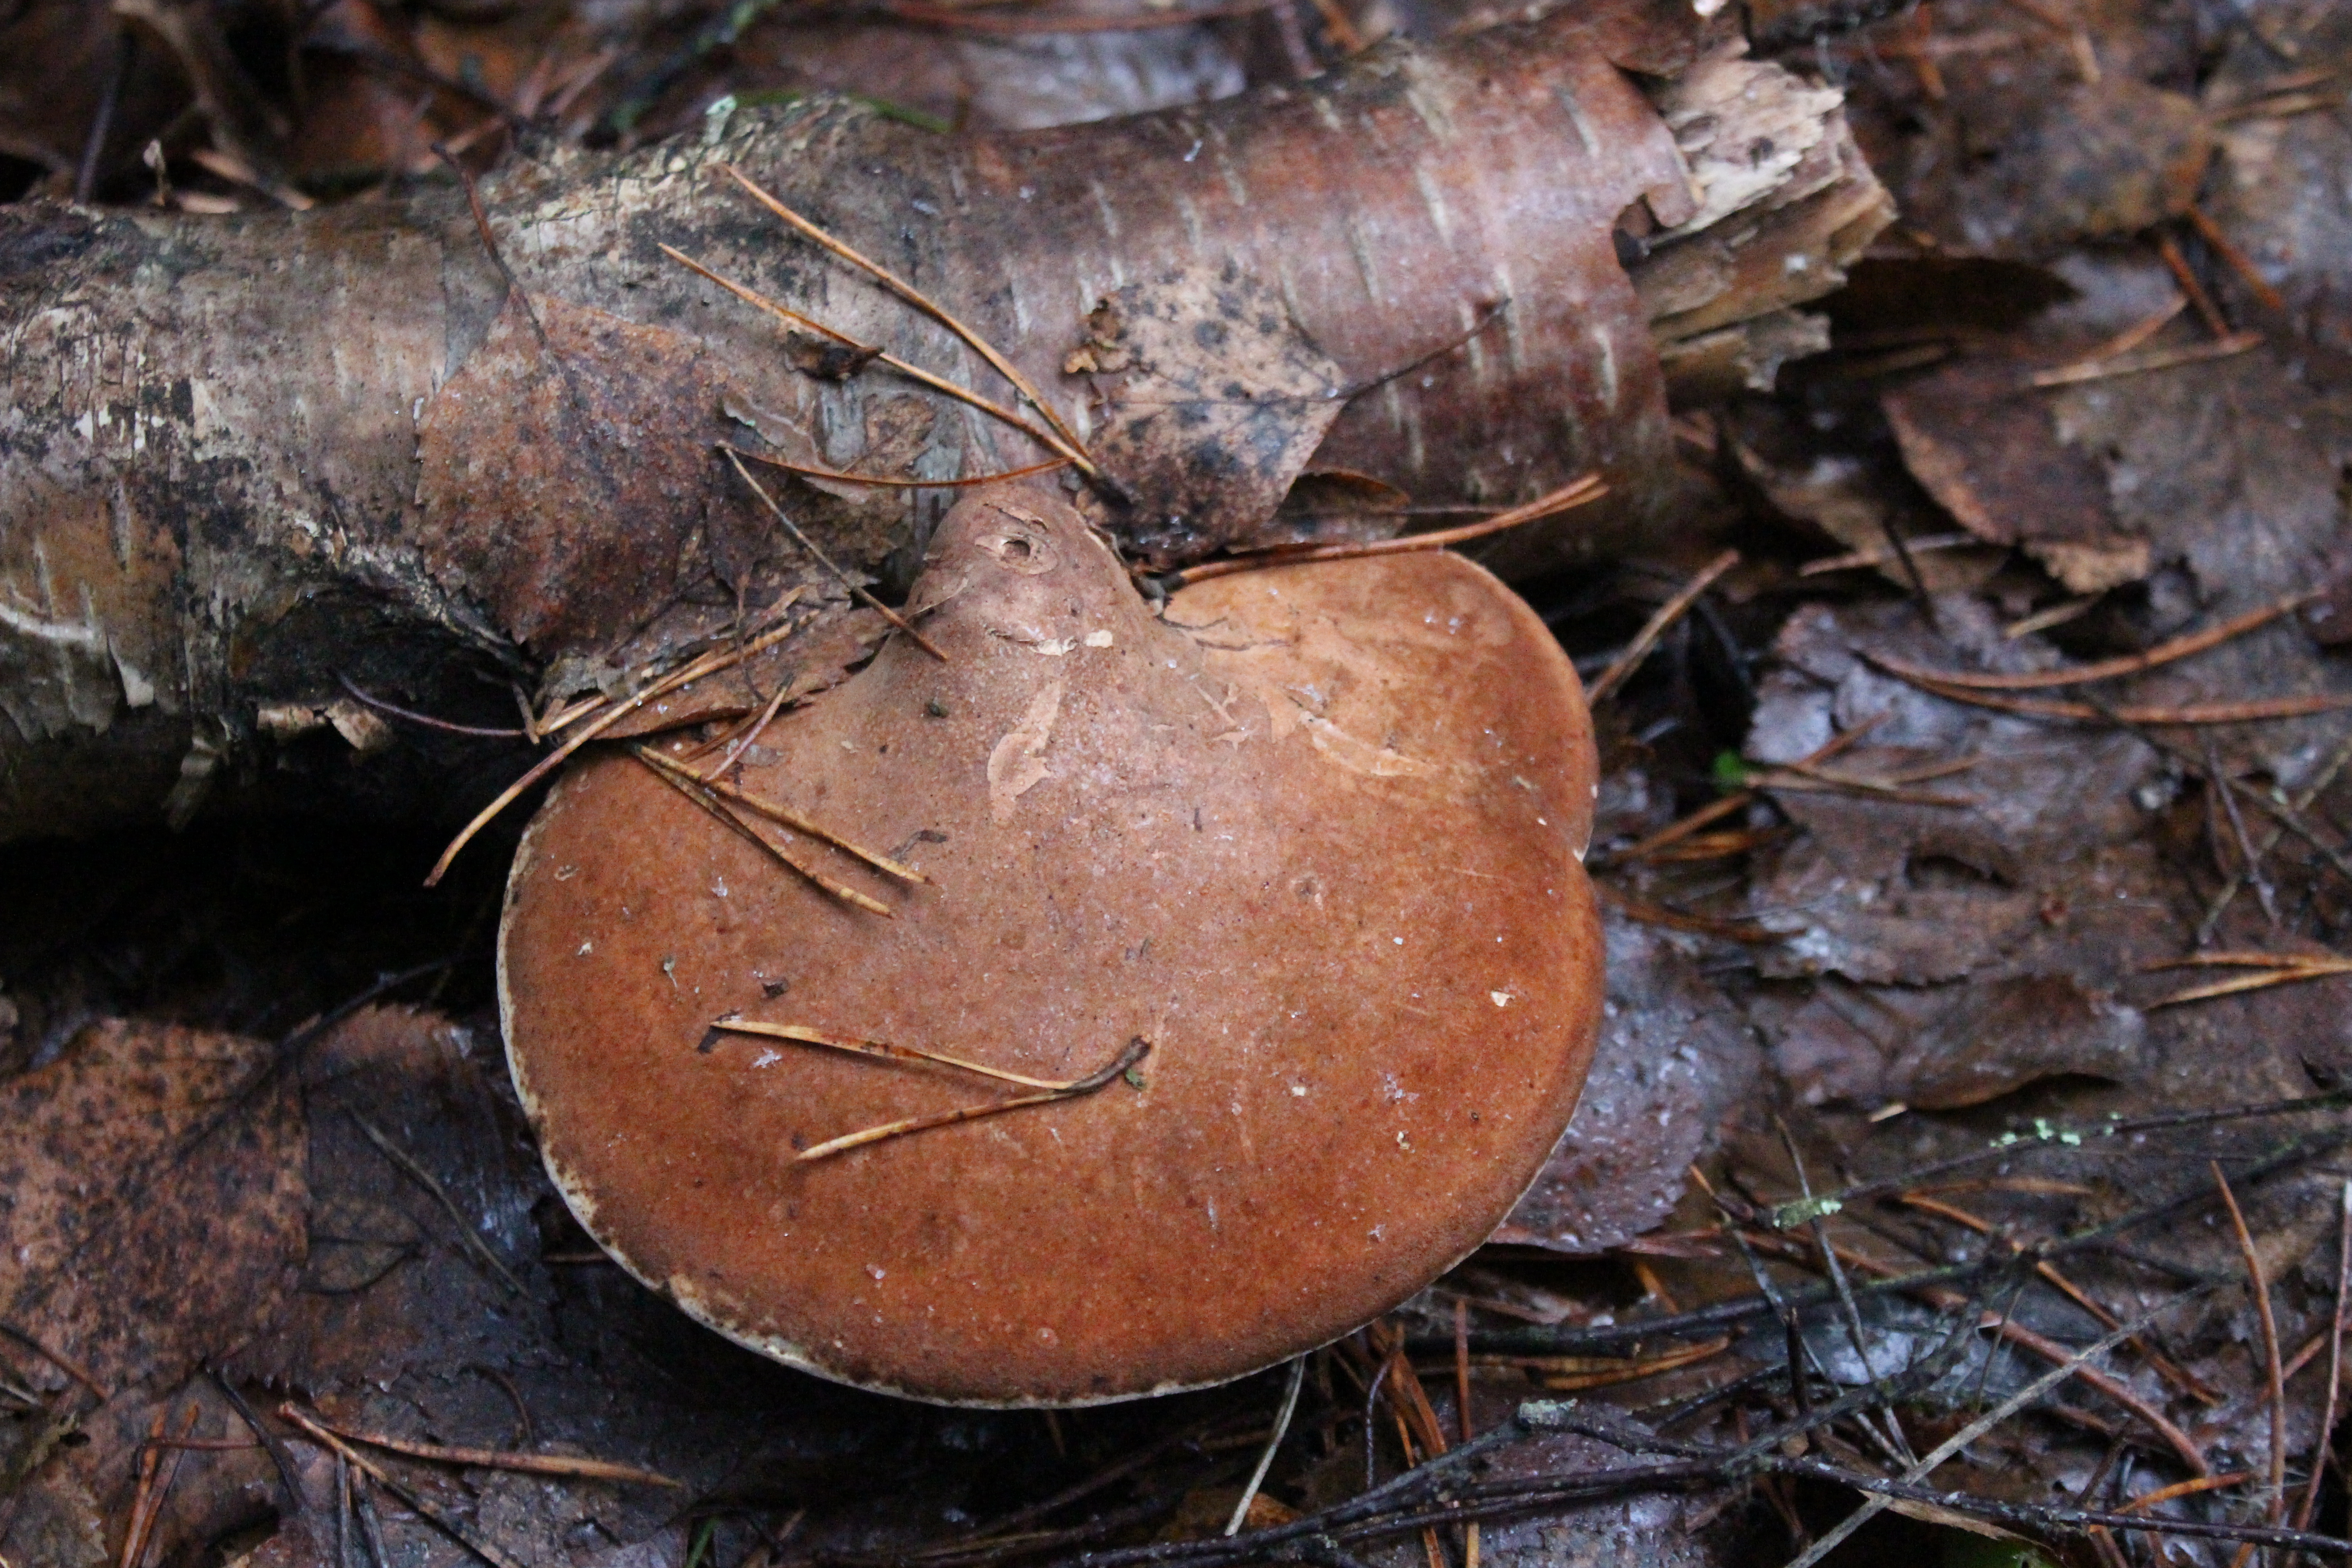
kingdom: Fungi
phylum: Basidiomycota
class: Agaricomycetes
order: Polyporales
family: Fomitopsidaceae
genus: Fomitopsis
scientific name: Fomitopsis betulina
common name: Birch polypore
